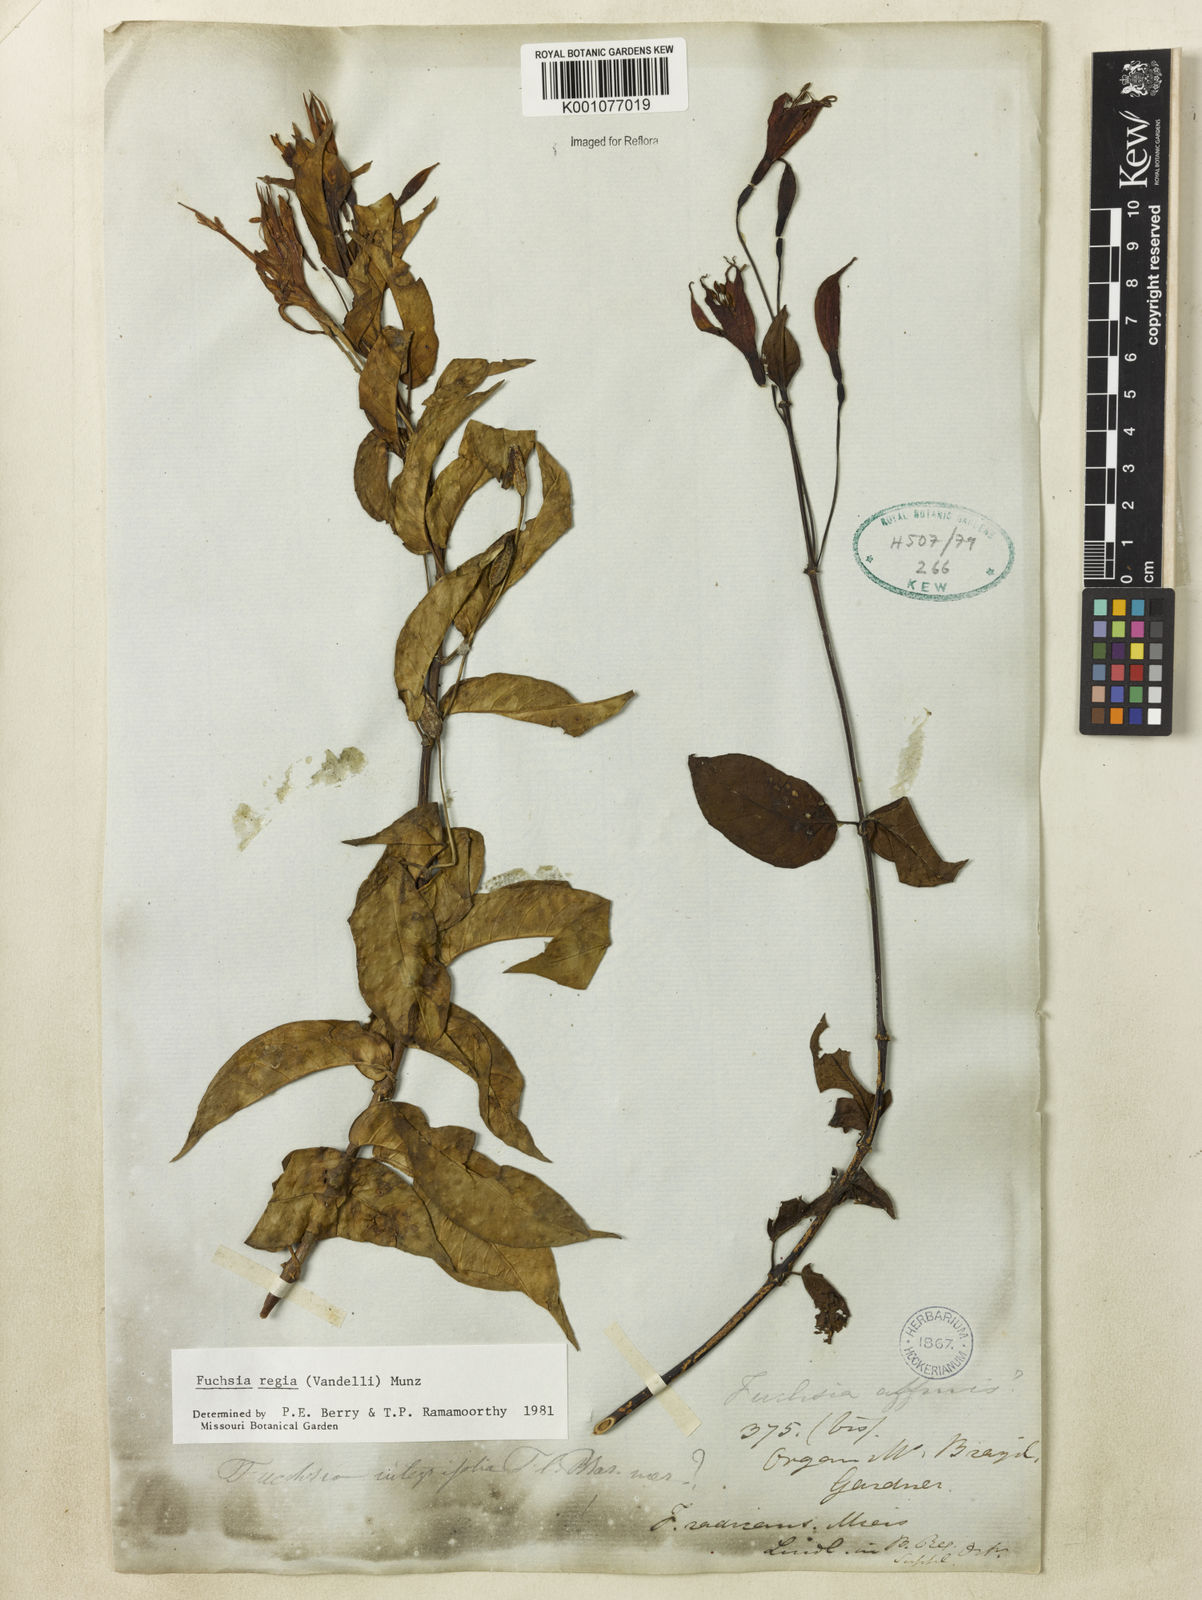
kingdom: Plantae
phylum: Tracheophyta
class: Magnoliopsida
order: Myrtales
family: Onagraceae
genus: Fuchsia
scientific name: Fuchsia regia
